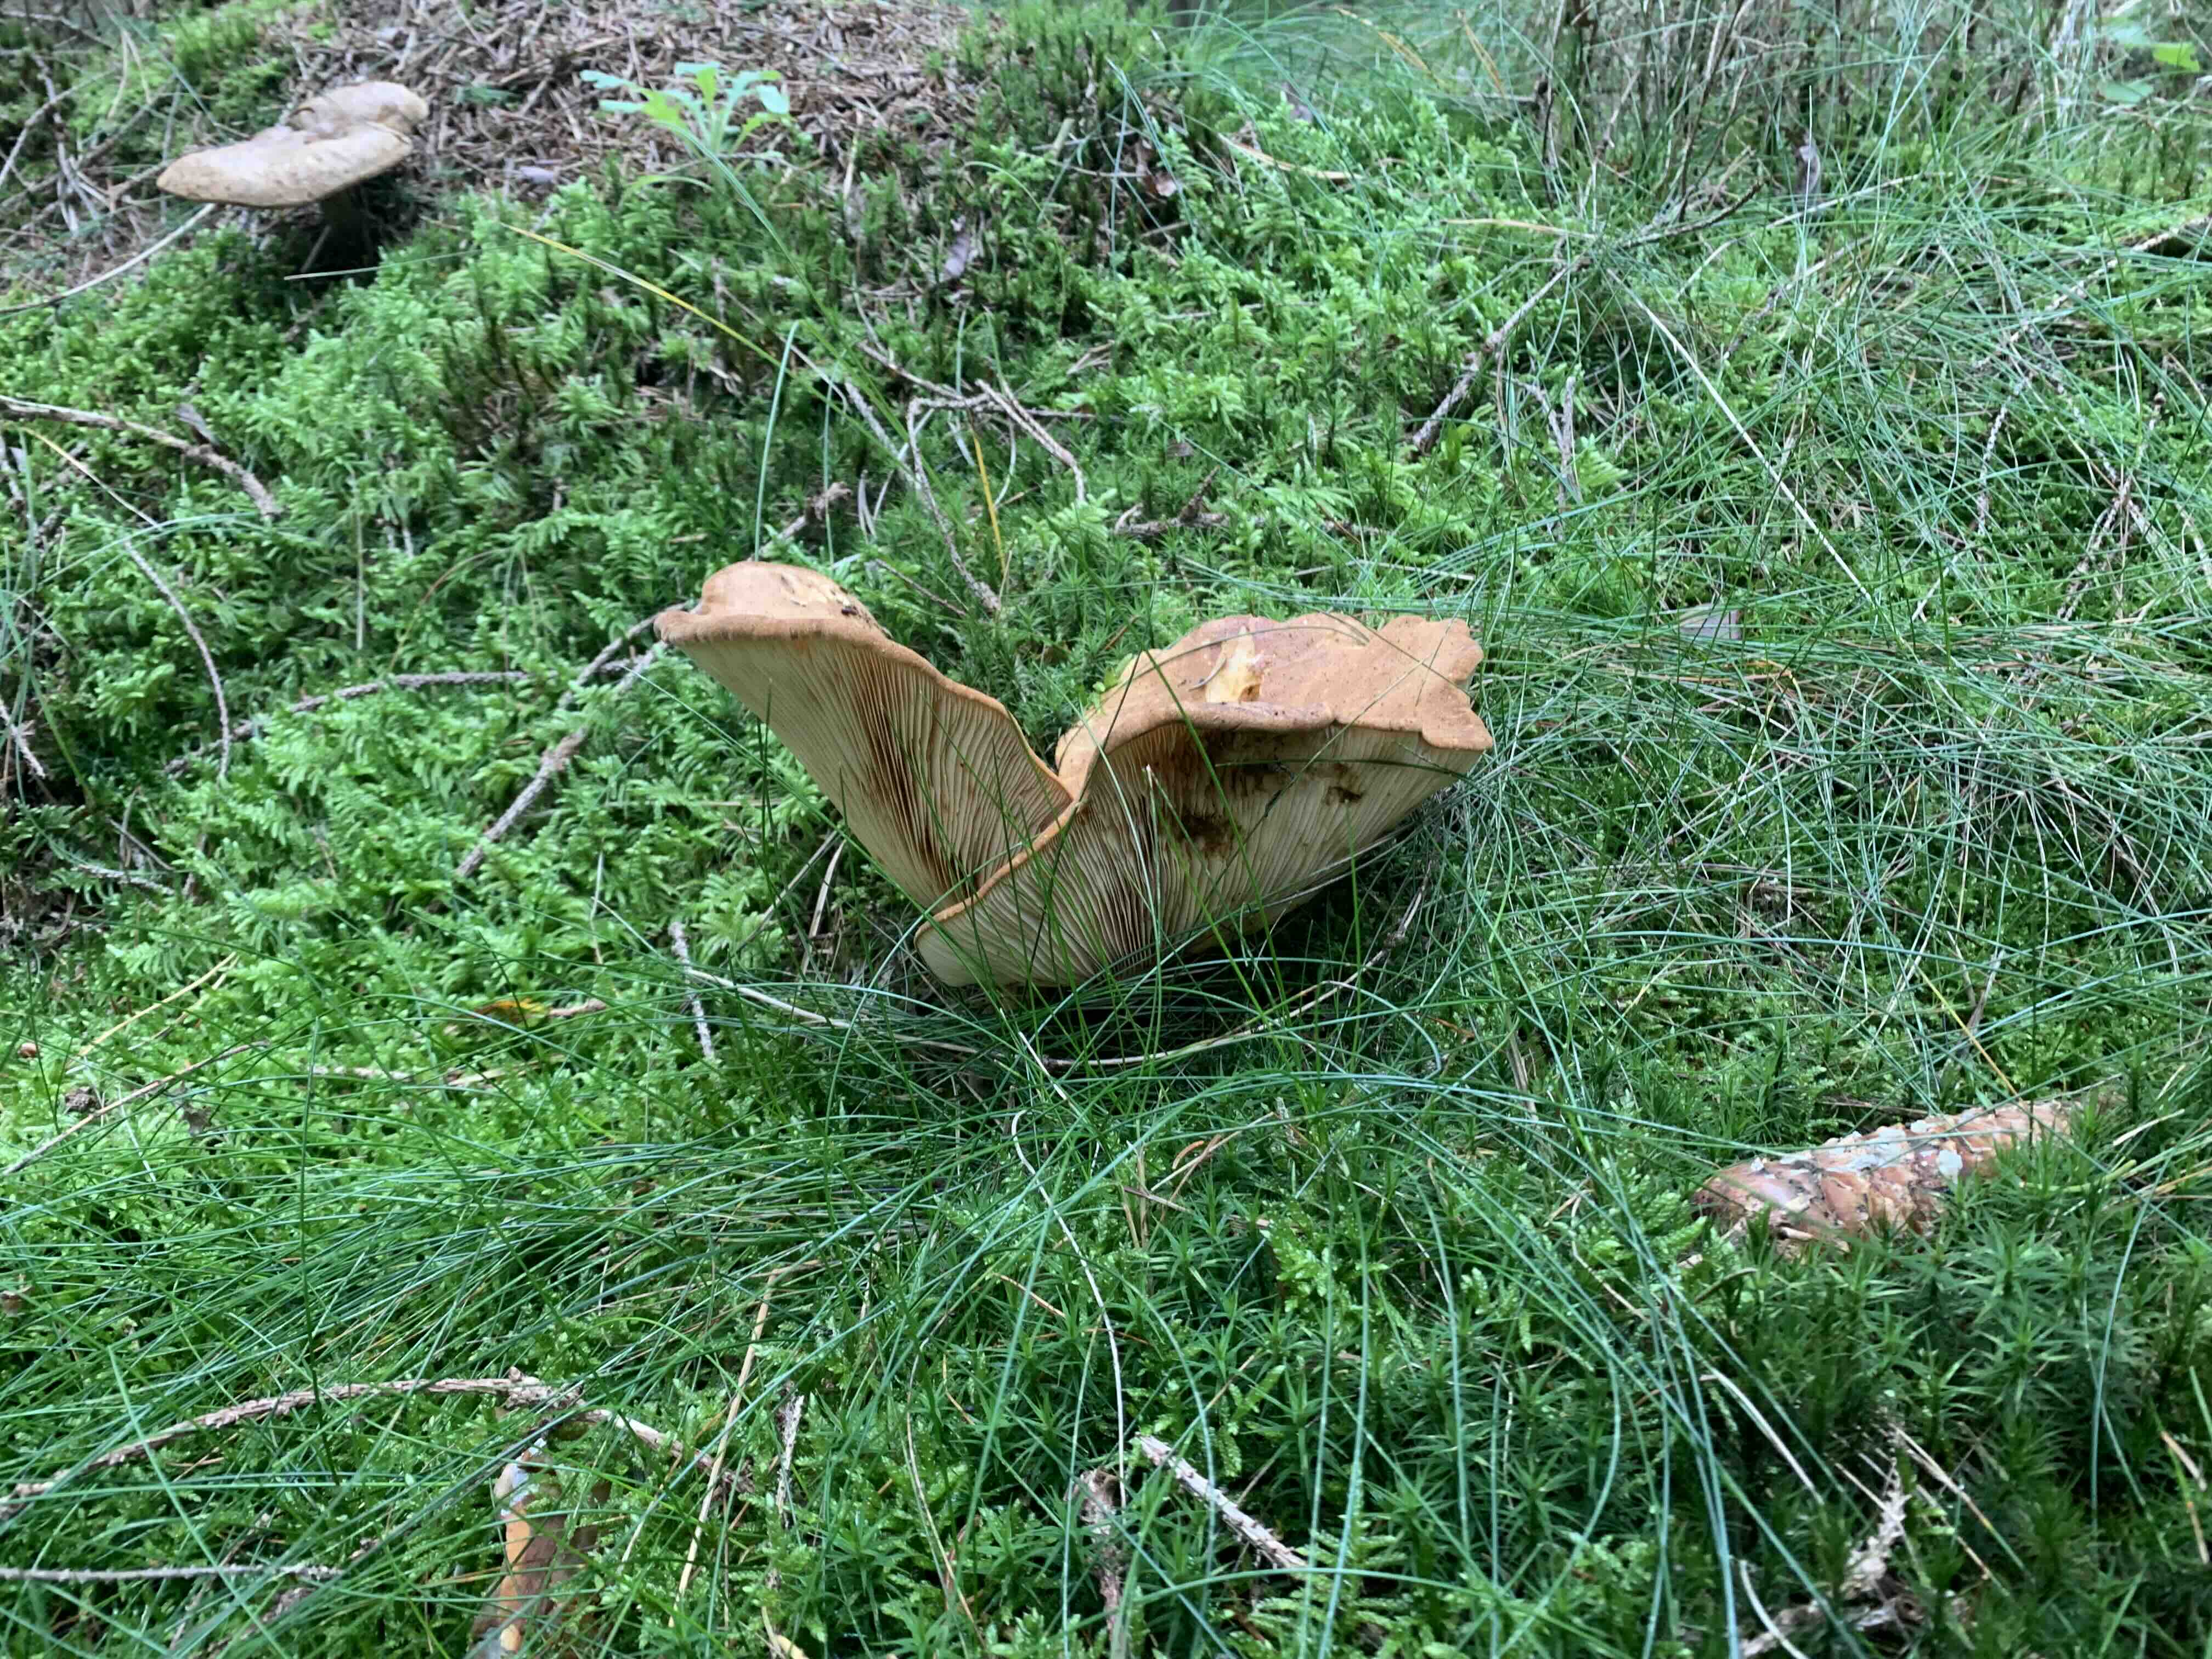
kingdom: Fungi
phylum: Basidiomycota
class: Agaricomycetes
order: Boletales
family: Tapinellaceae
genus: Tapinella
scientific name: Tapinella atrotomentosa
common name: sortfiltet viftesvamp
